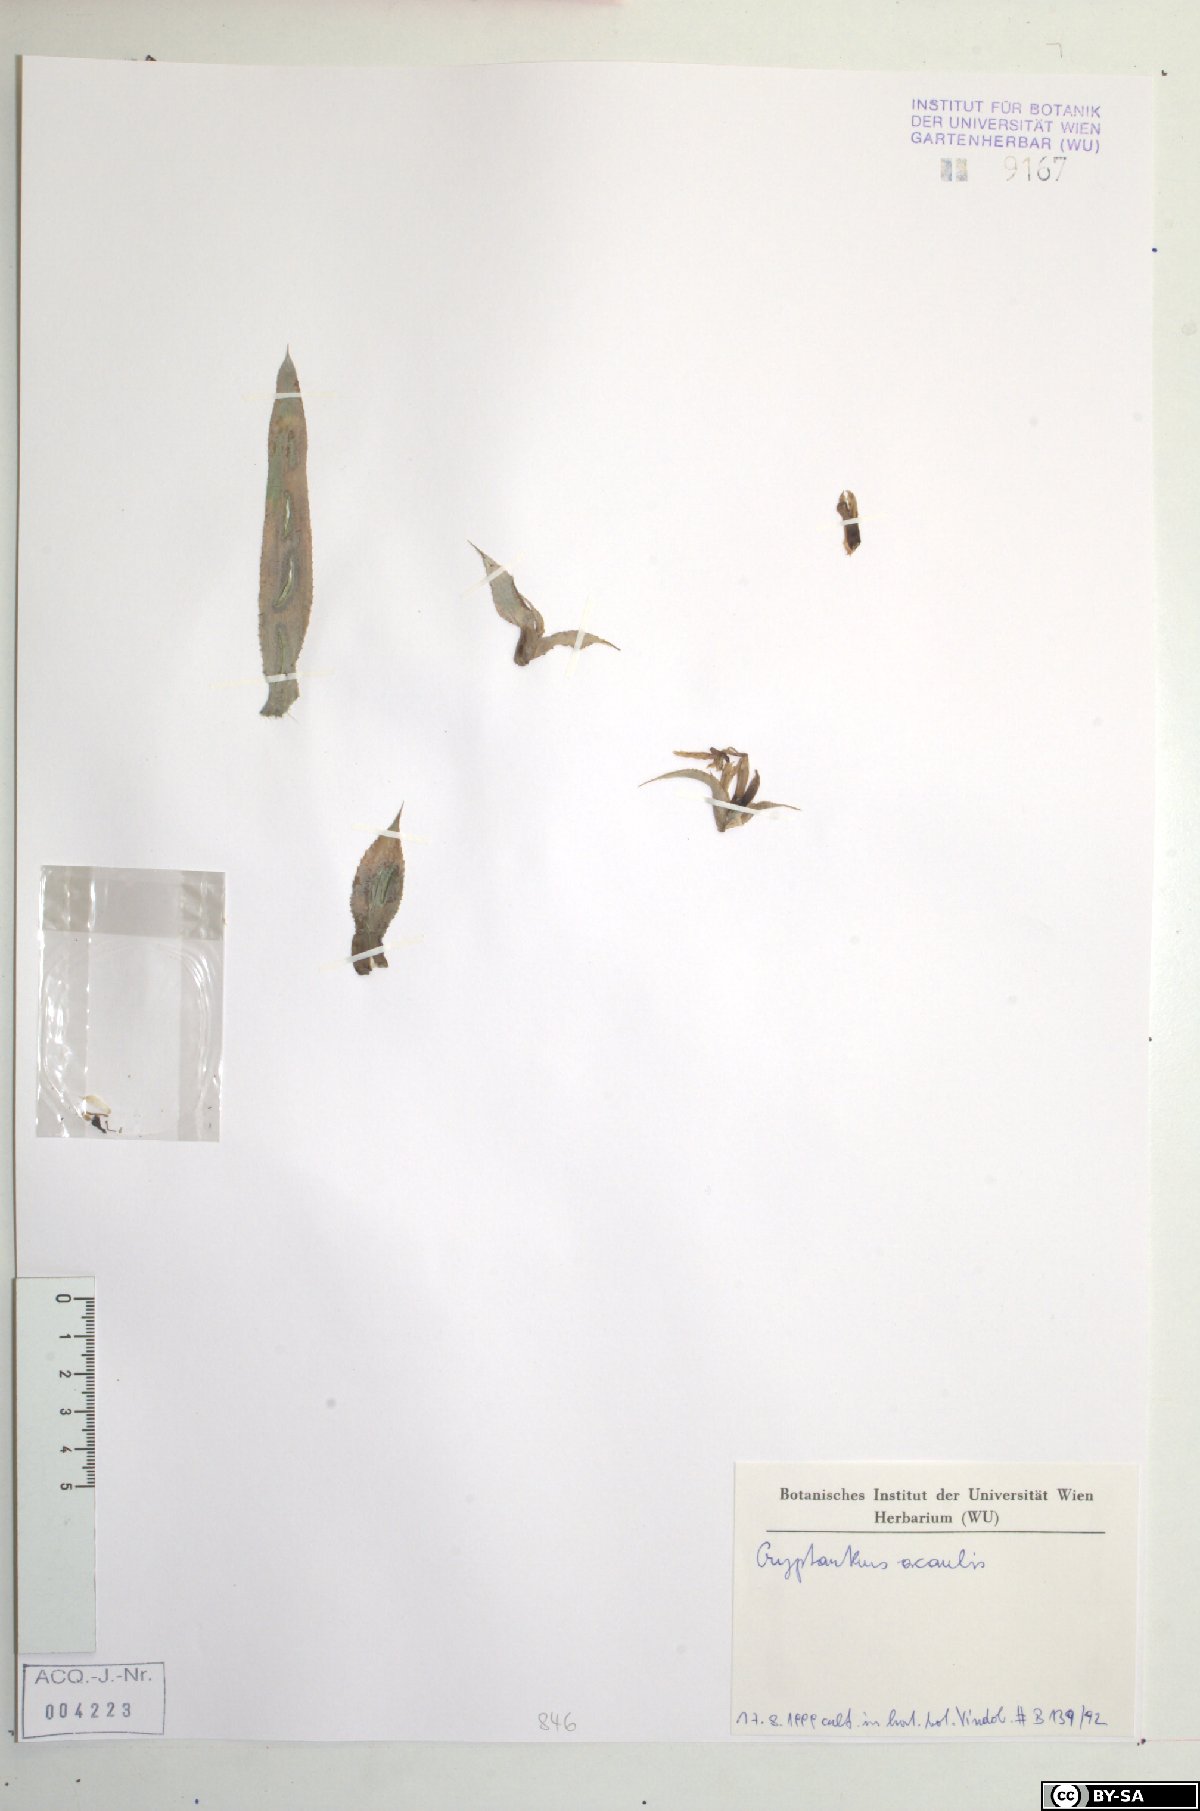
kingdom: Plantae
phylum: Tracheophyta
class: Liliopsida
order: Poales
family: Bromeliaceae
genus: Cryptanthus
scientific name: Cryptanthus acaulis
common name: Starfishplant
